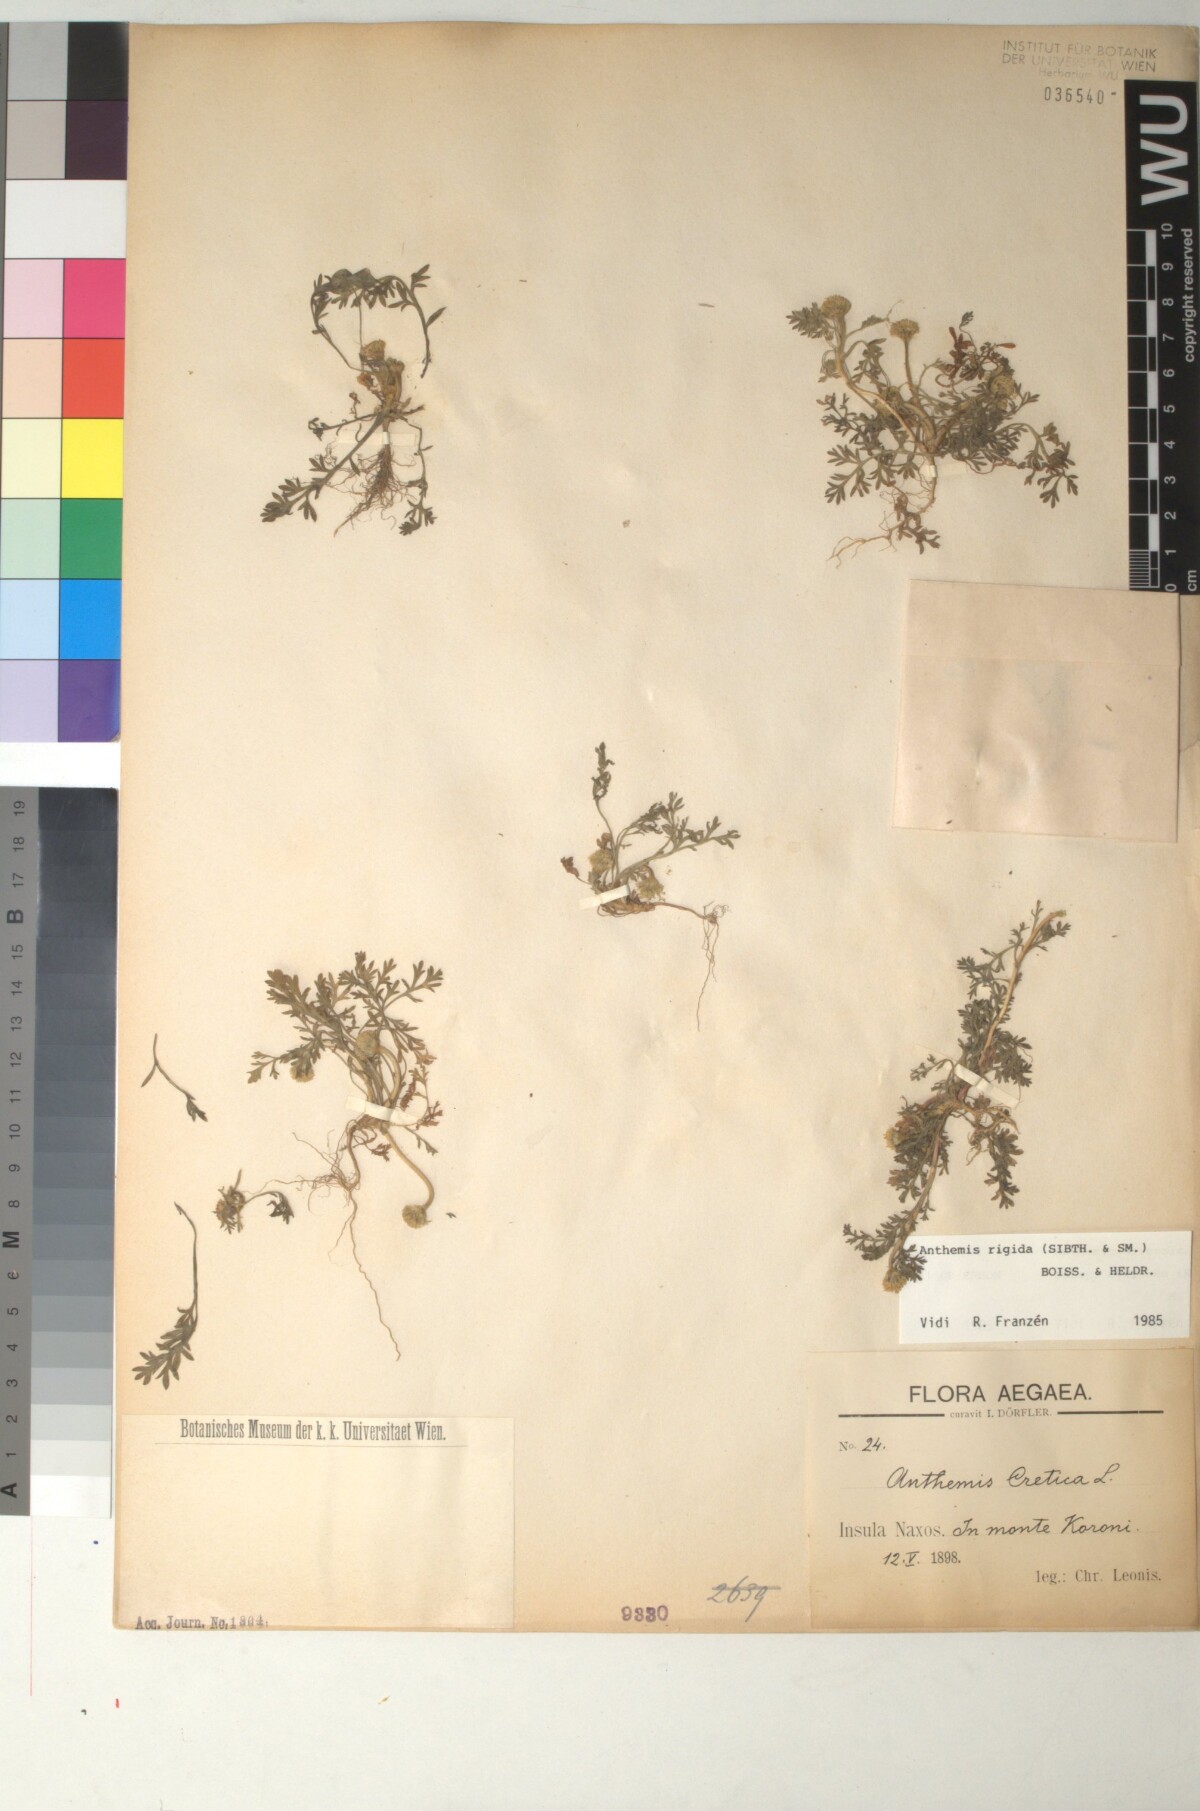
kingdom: Plantae
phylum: Tracheophyta
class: Magnoliopsida
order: Asterales
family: Asteraceae
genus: Anthemis
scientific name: Anthemis rigida
